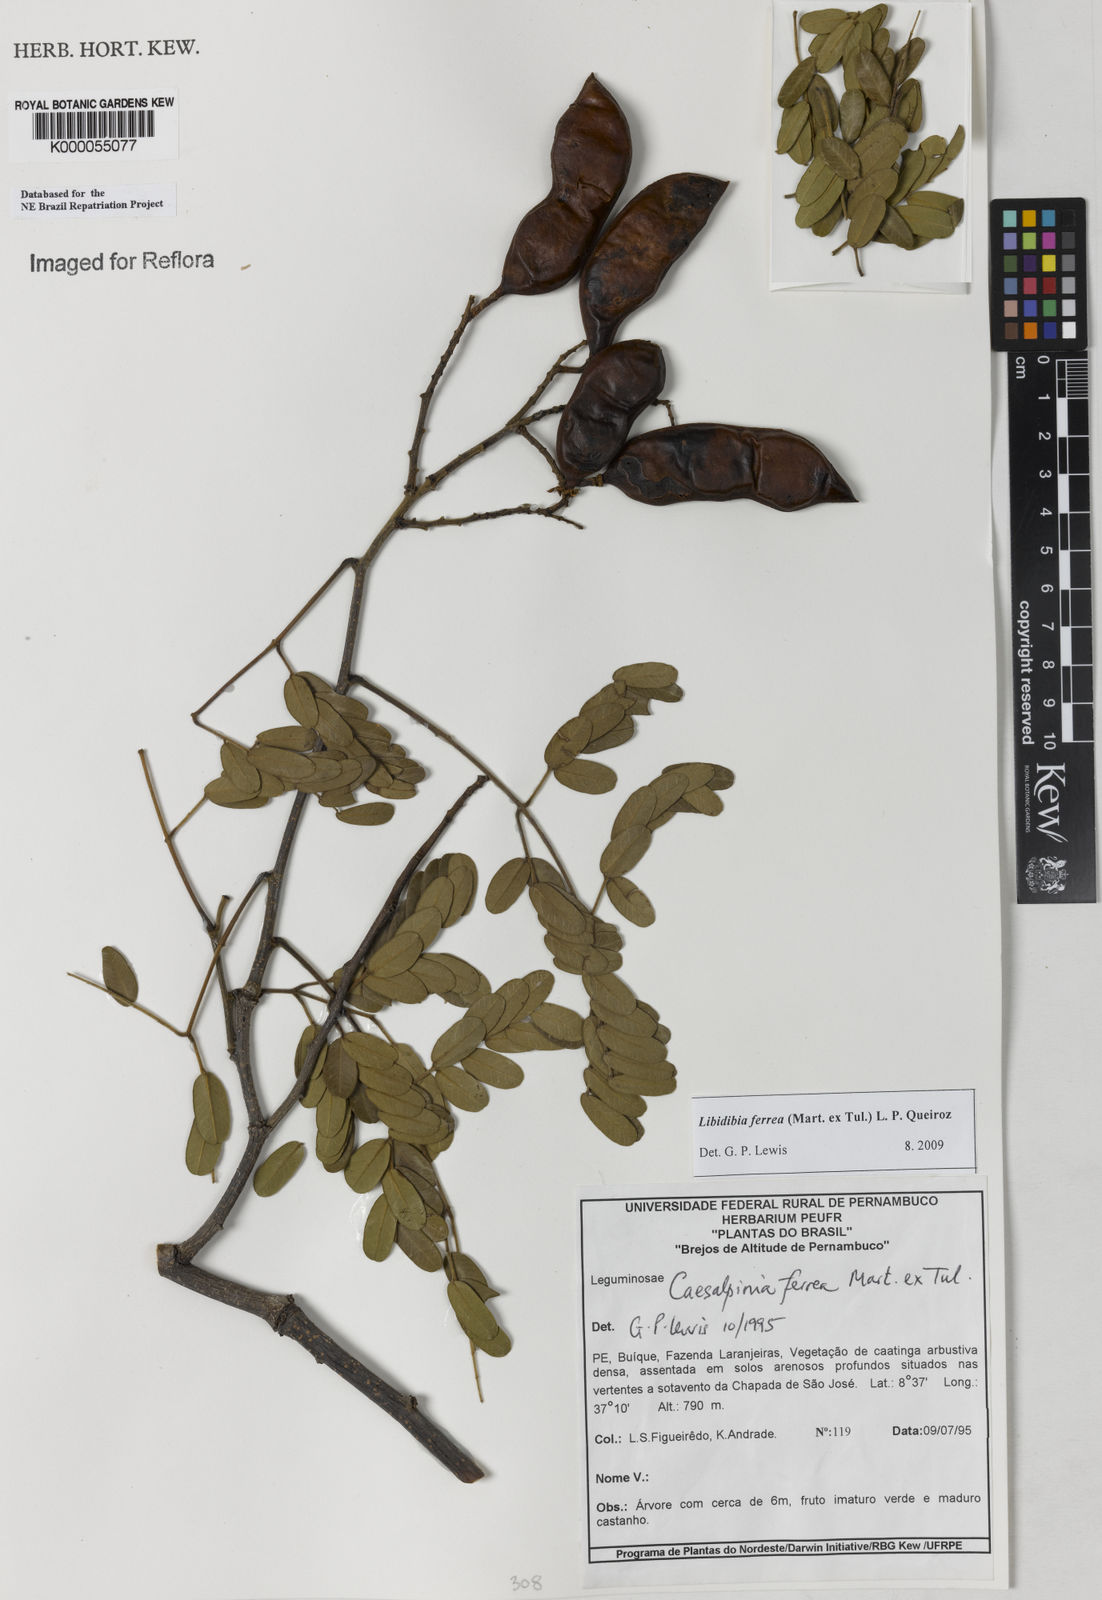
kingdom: Plantae
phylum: Tracheophyta
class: Magnoliopsida
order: Fabales
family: Fabaceae
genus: Libidibia
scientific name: Libidibia ferrea
